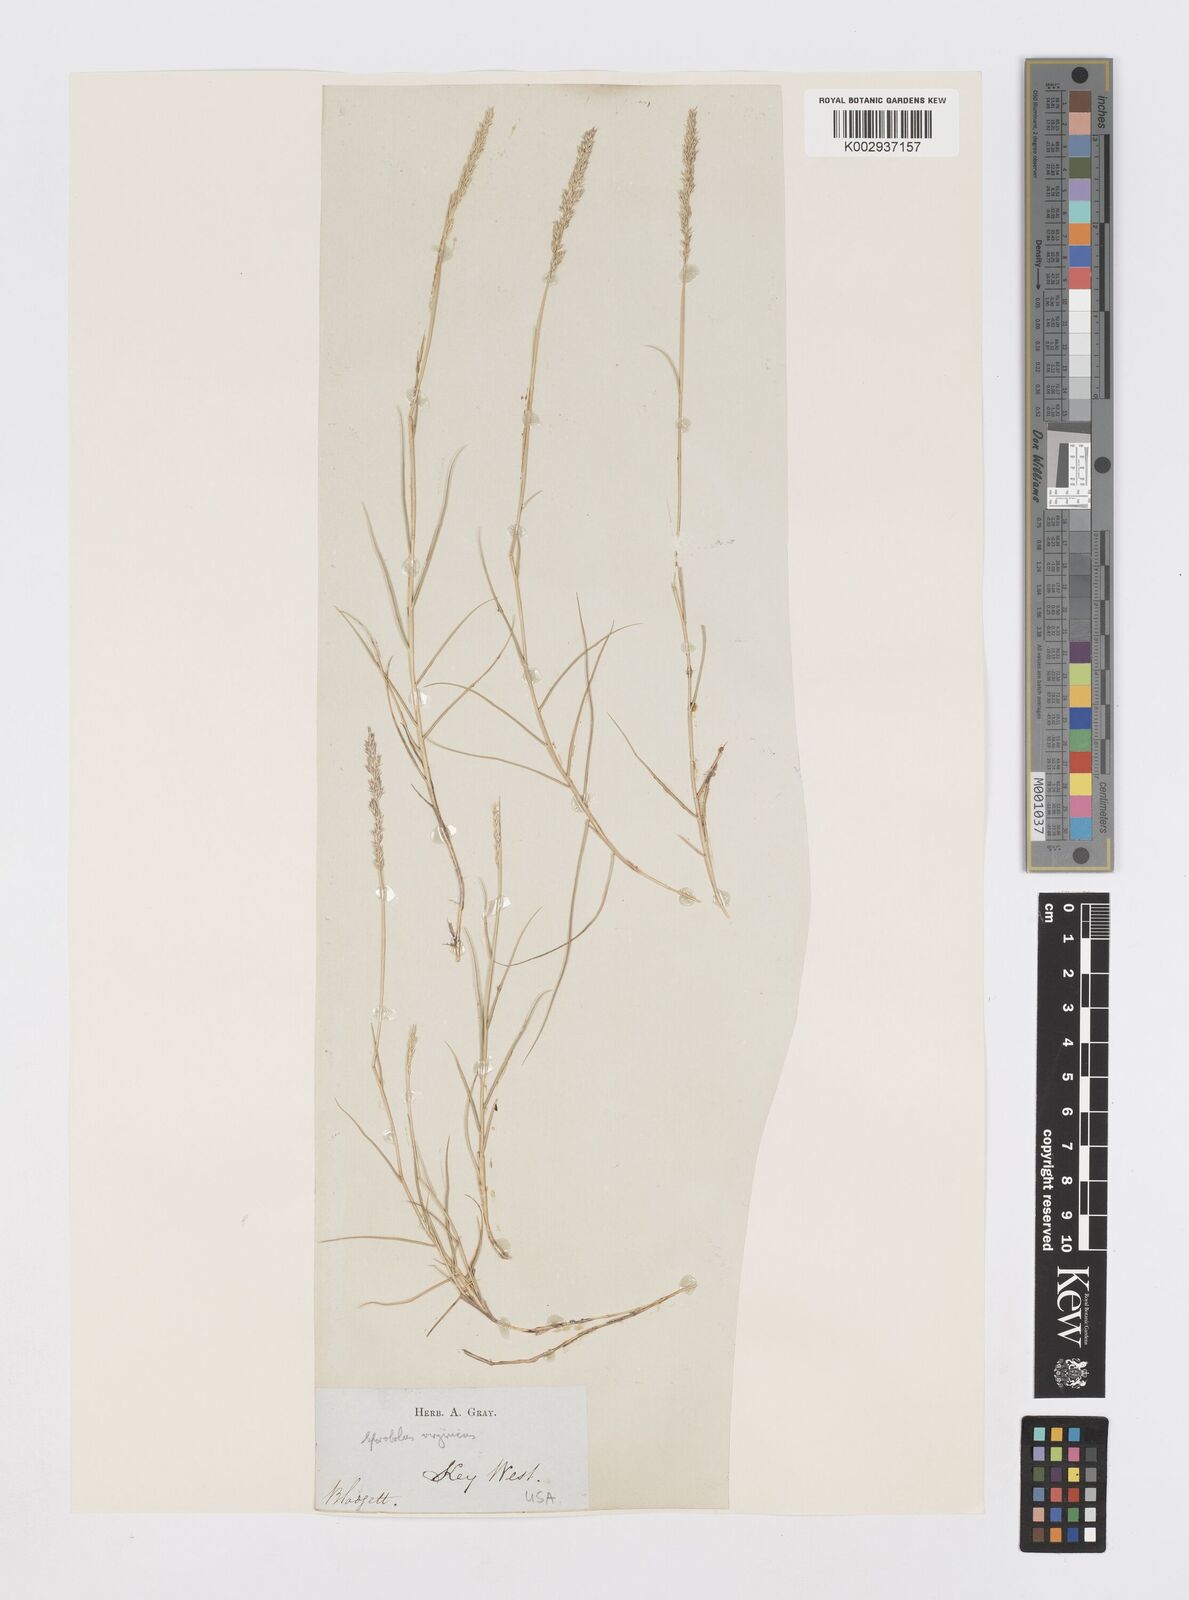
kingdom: Plantae
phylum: Tracheophyta
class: Liliopsida
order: Poales
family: Poaceae
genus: Sporobolus
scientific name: Sporobolus virginicus
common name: Beach dropseed
